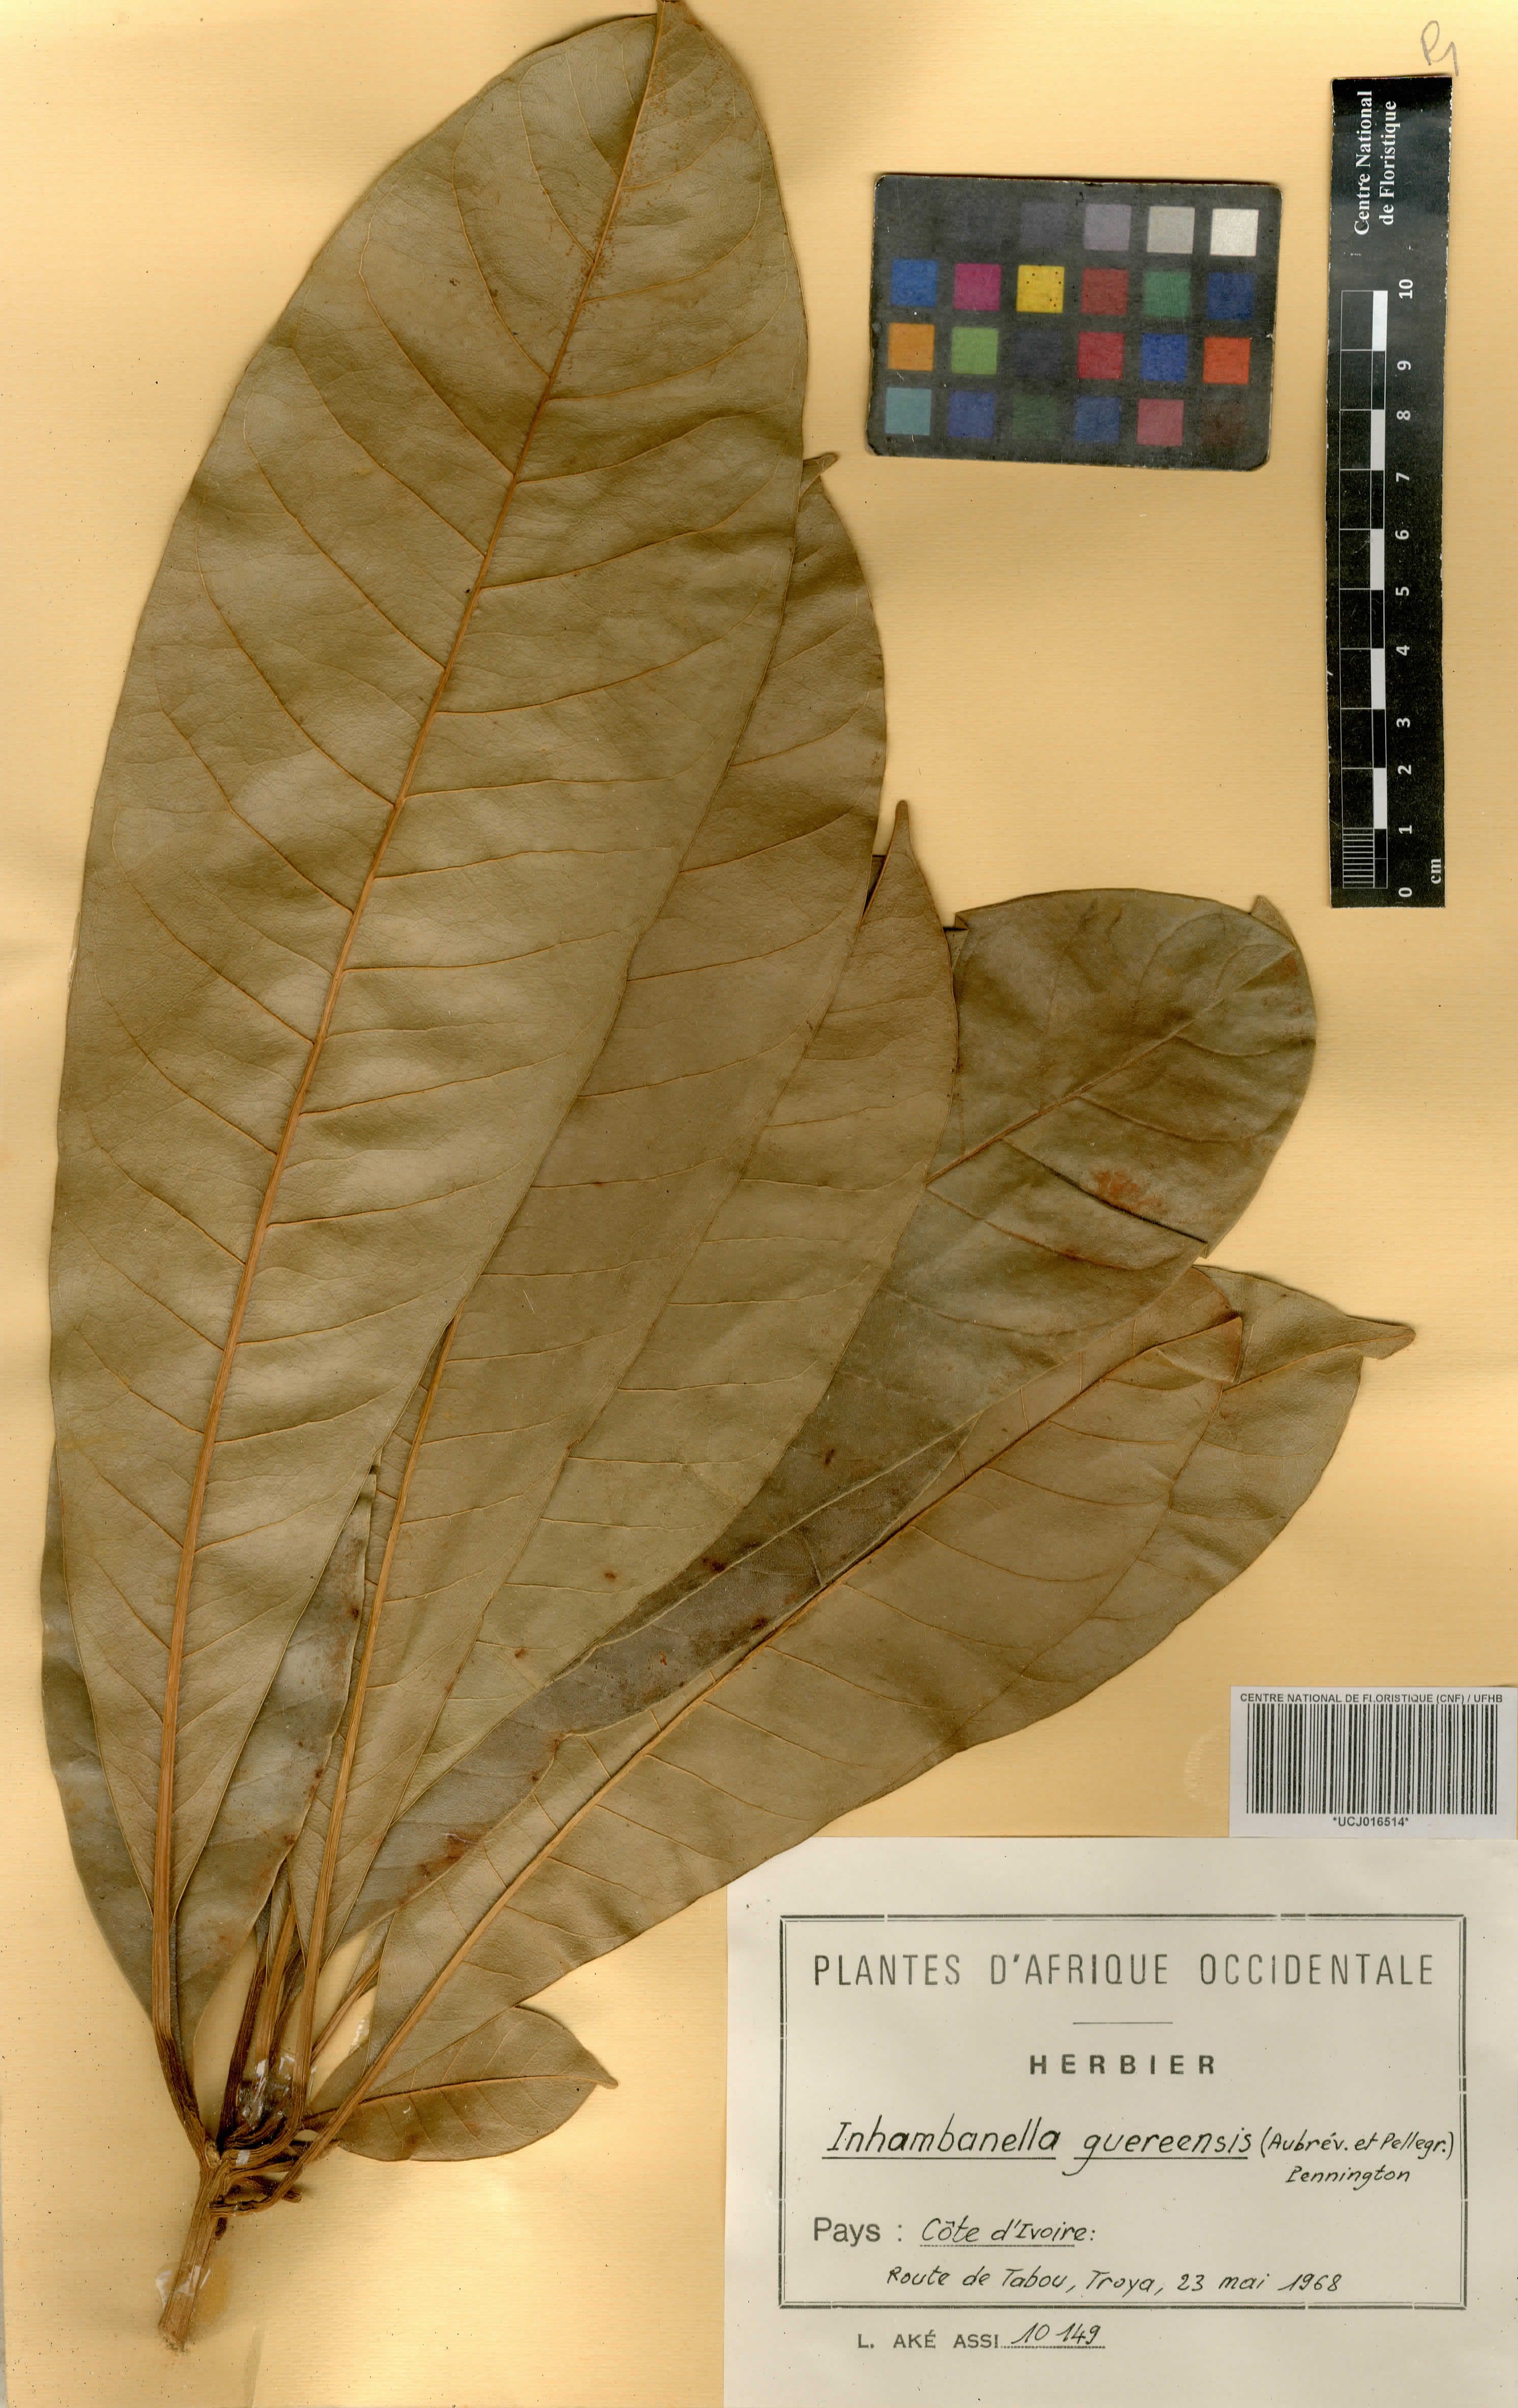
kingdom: Plantae
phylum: Tracheophyta
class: Magnoliopsida
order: Ericales
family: Sapotaceae
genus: Inhambanella
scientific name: Inhambanella guereensis
